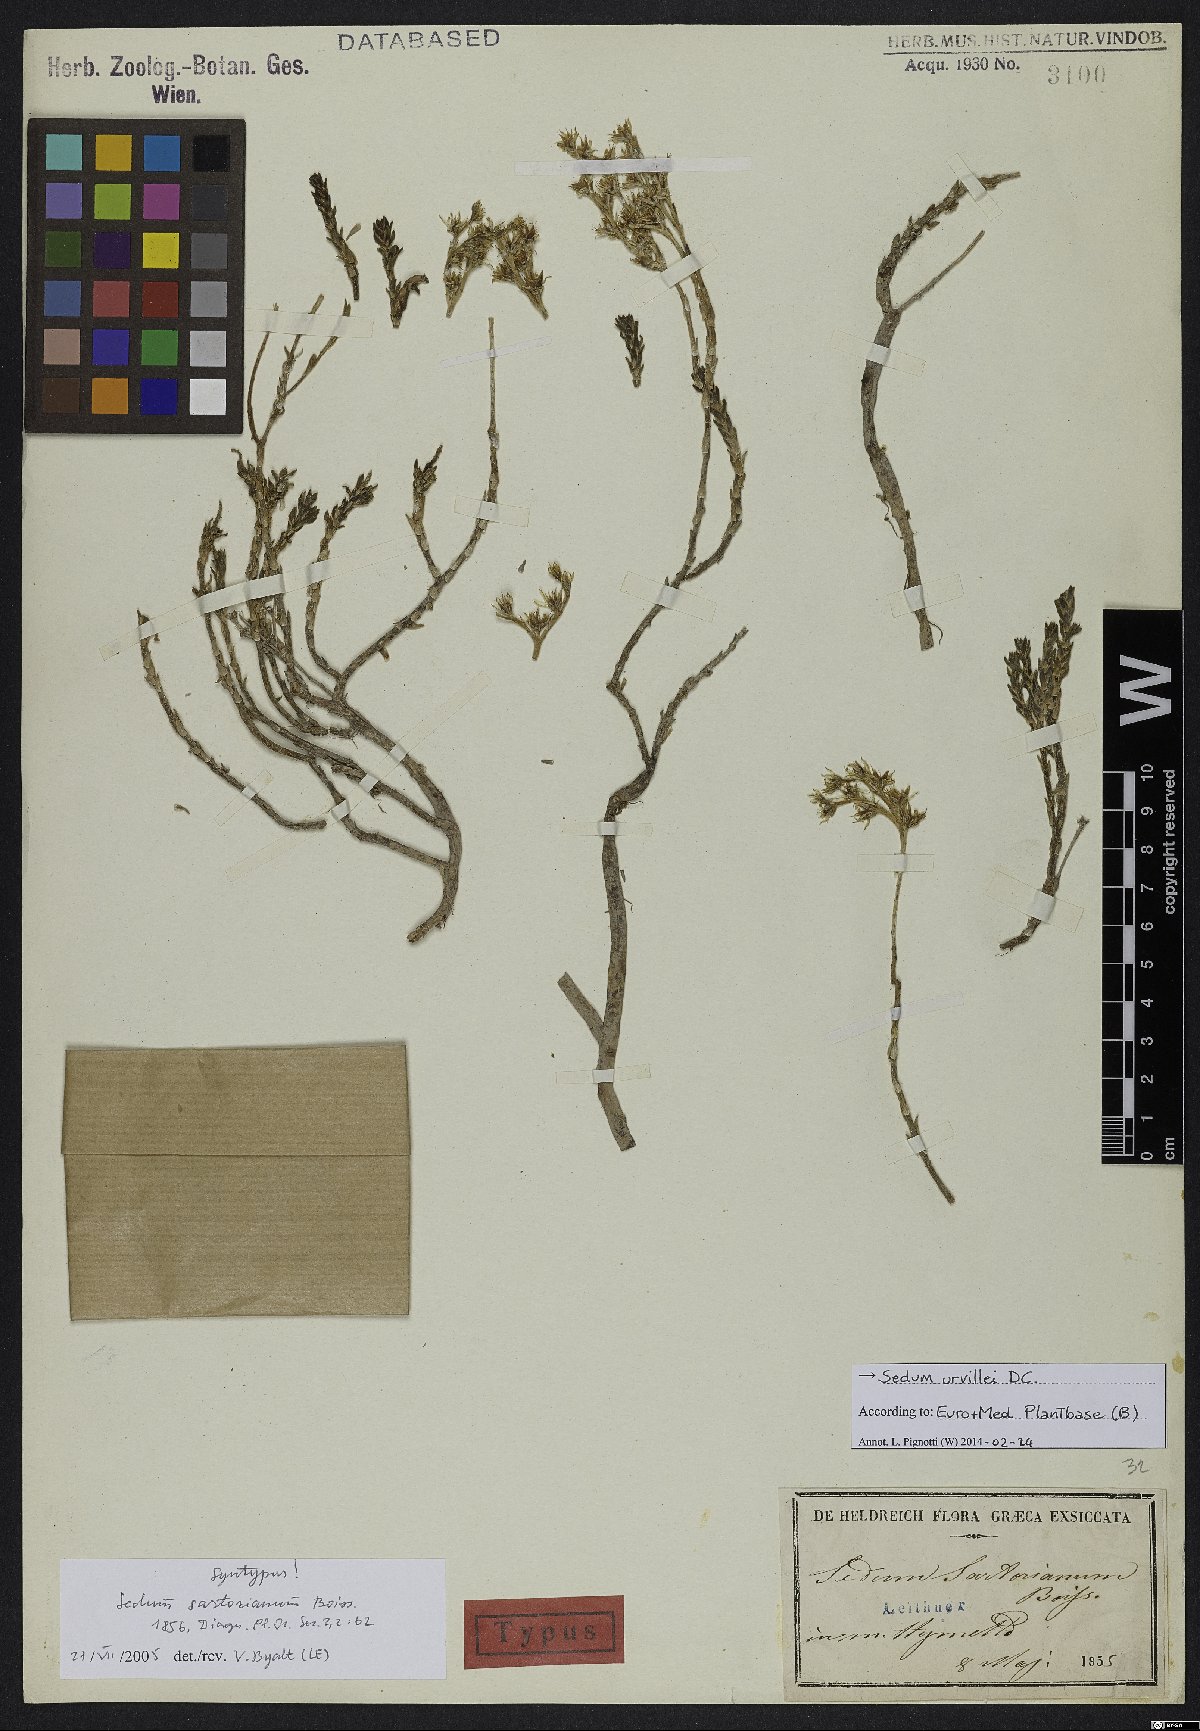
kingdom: Plantae
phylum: Tracheophyta
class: Magnoliopsida
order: Saxifragales
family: Crassulaceae
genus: Sedum
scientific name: Sedum urvillei
